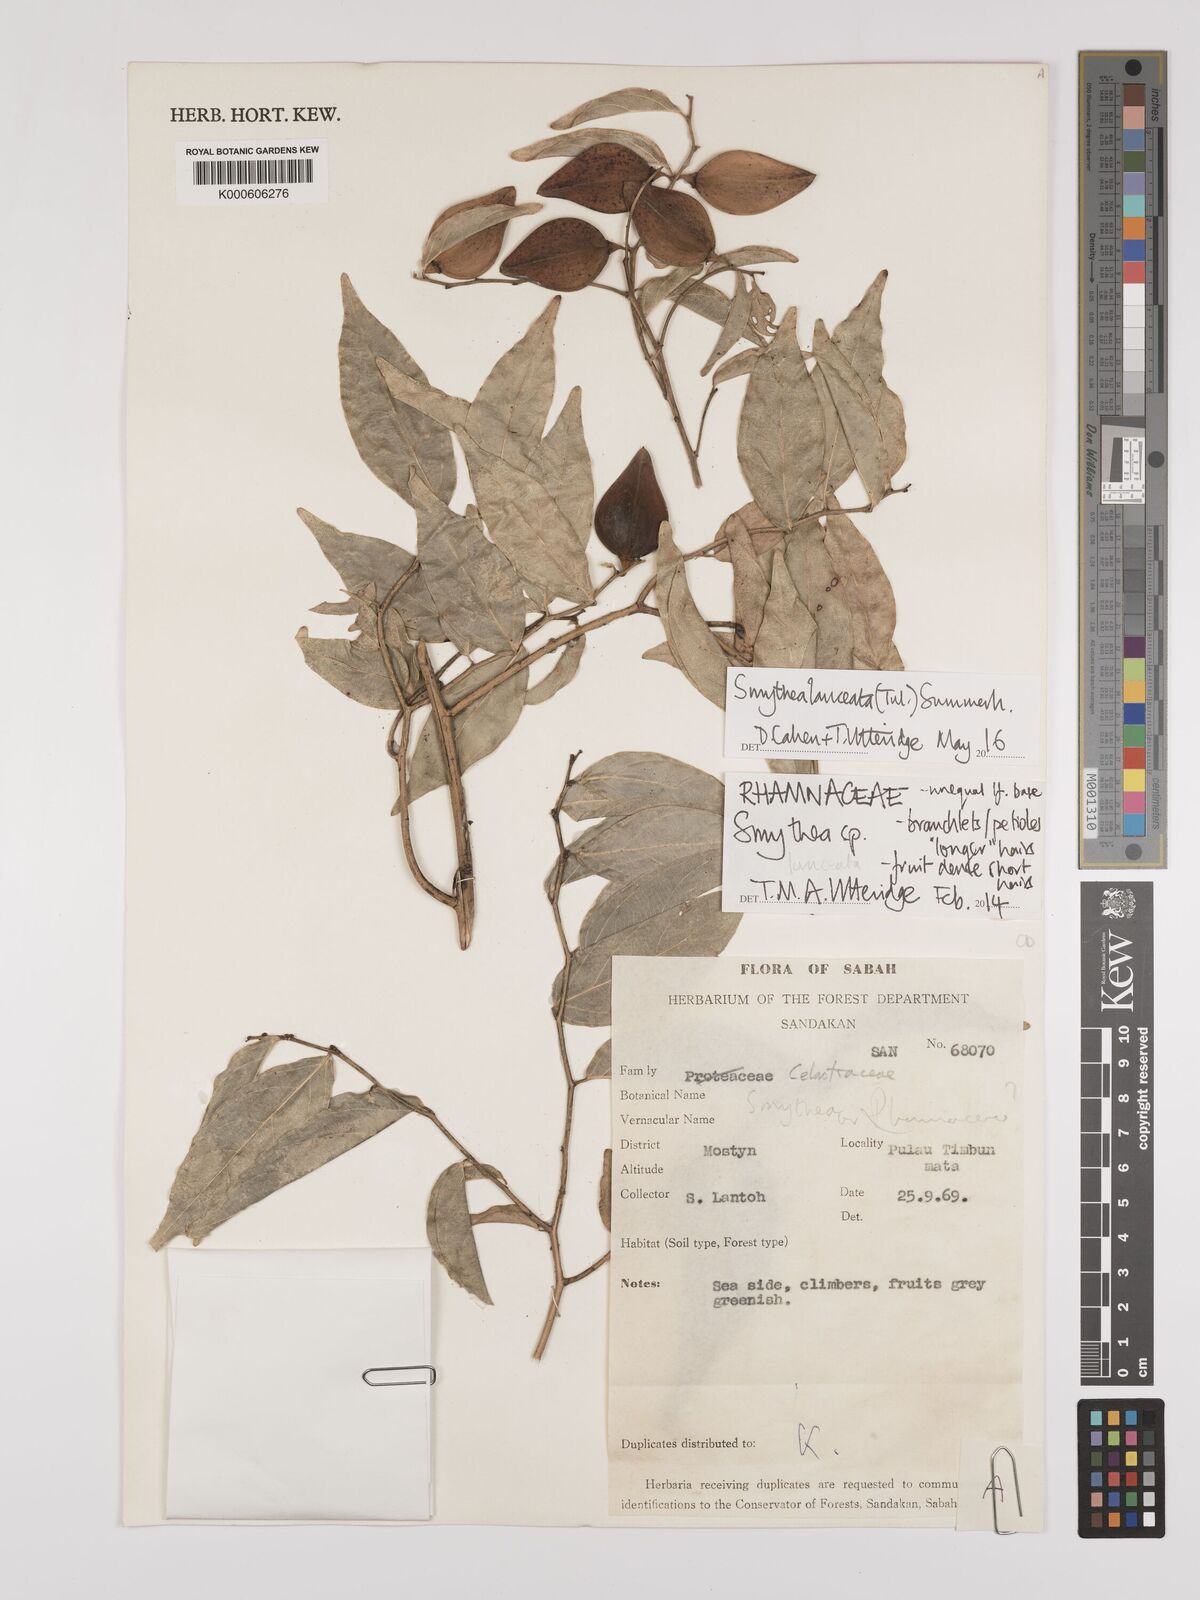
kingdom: Plantae
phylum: Tracheophyta
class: Magnoliopsida
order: Rosales
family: Rhamnaceae
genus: Smythea
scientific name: Smythea
